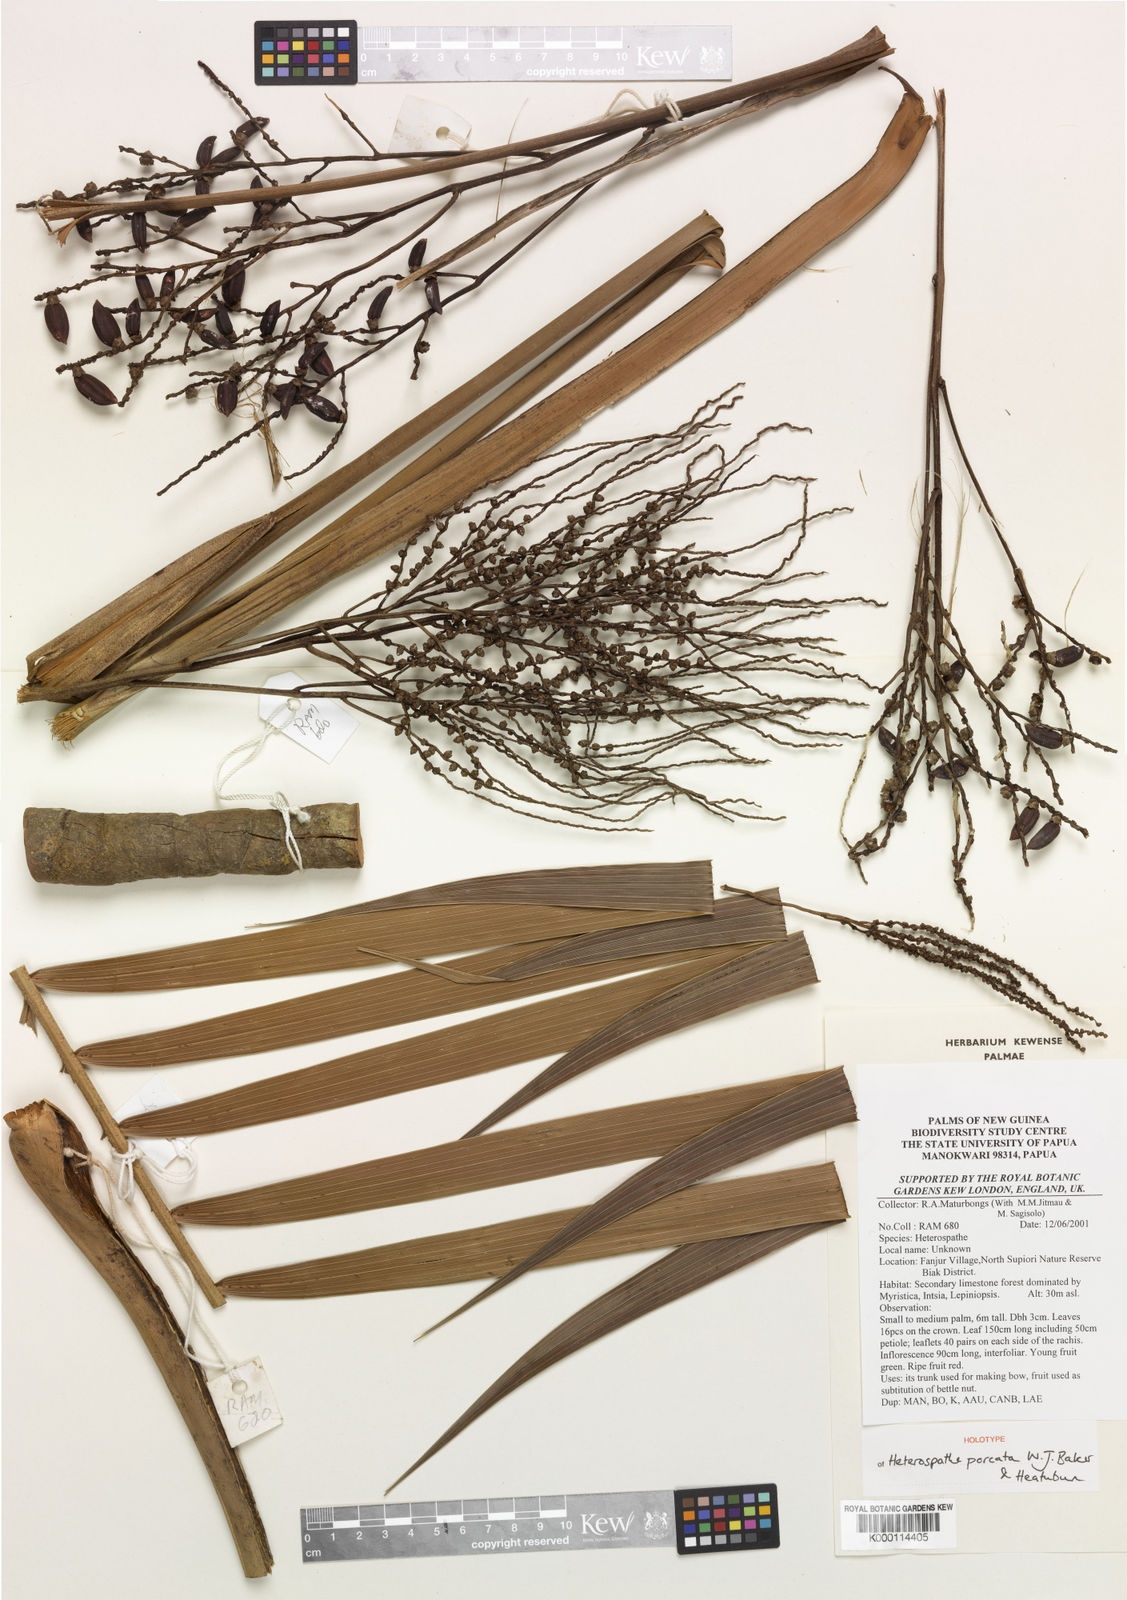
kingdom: Plantae
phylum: Tracheophyta
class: Liliopsida
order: Arecales
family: Arecaceae
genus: Heterospathe
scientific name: Heterospathe porcata
